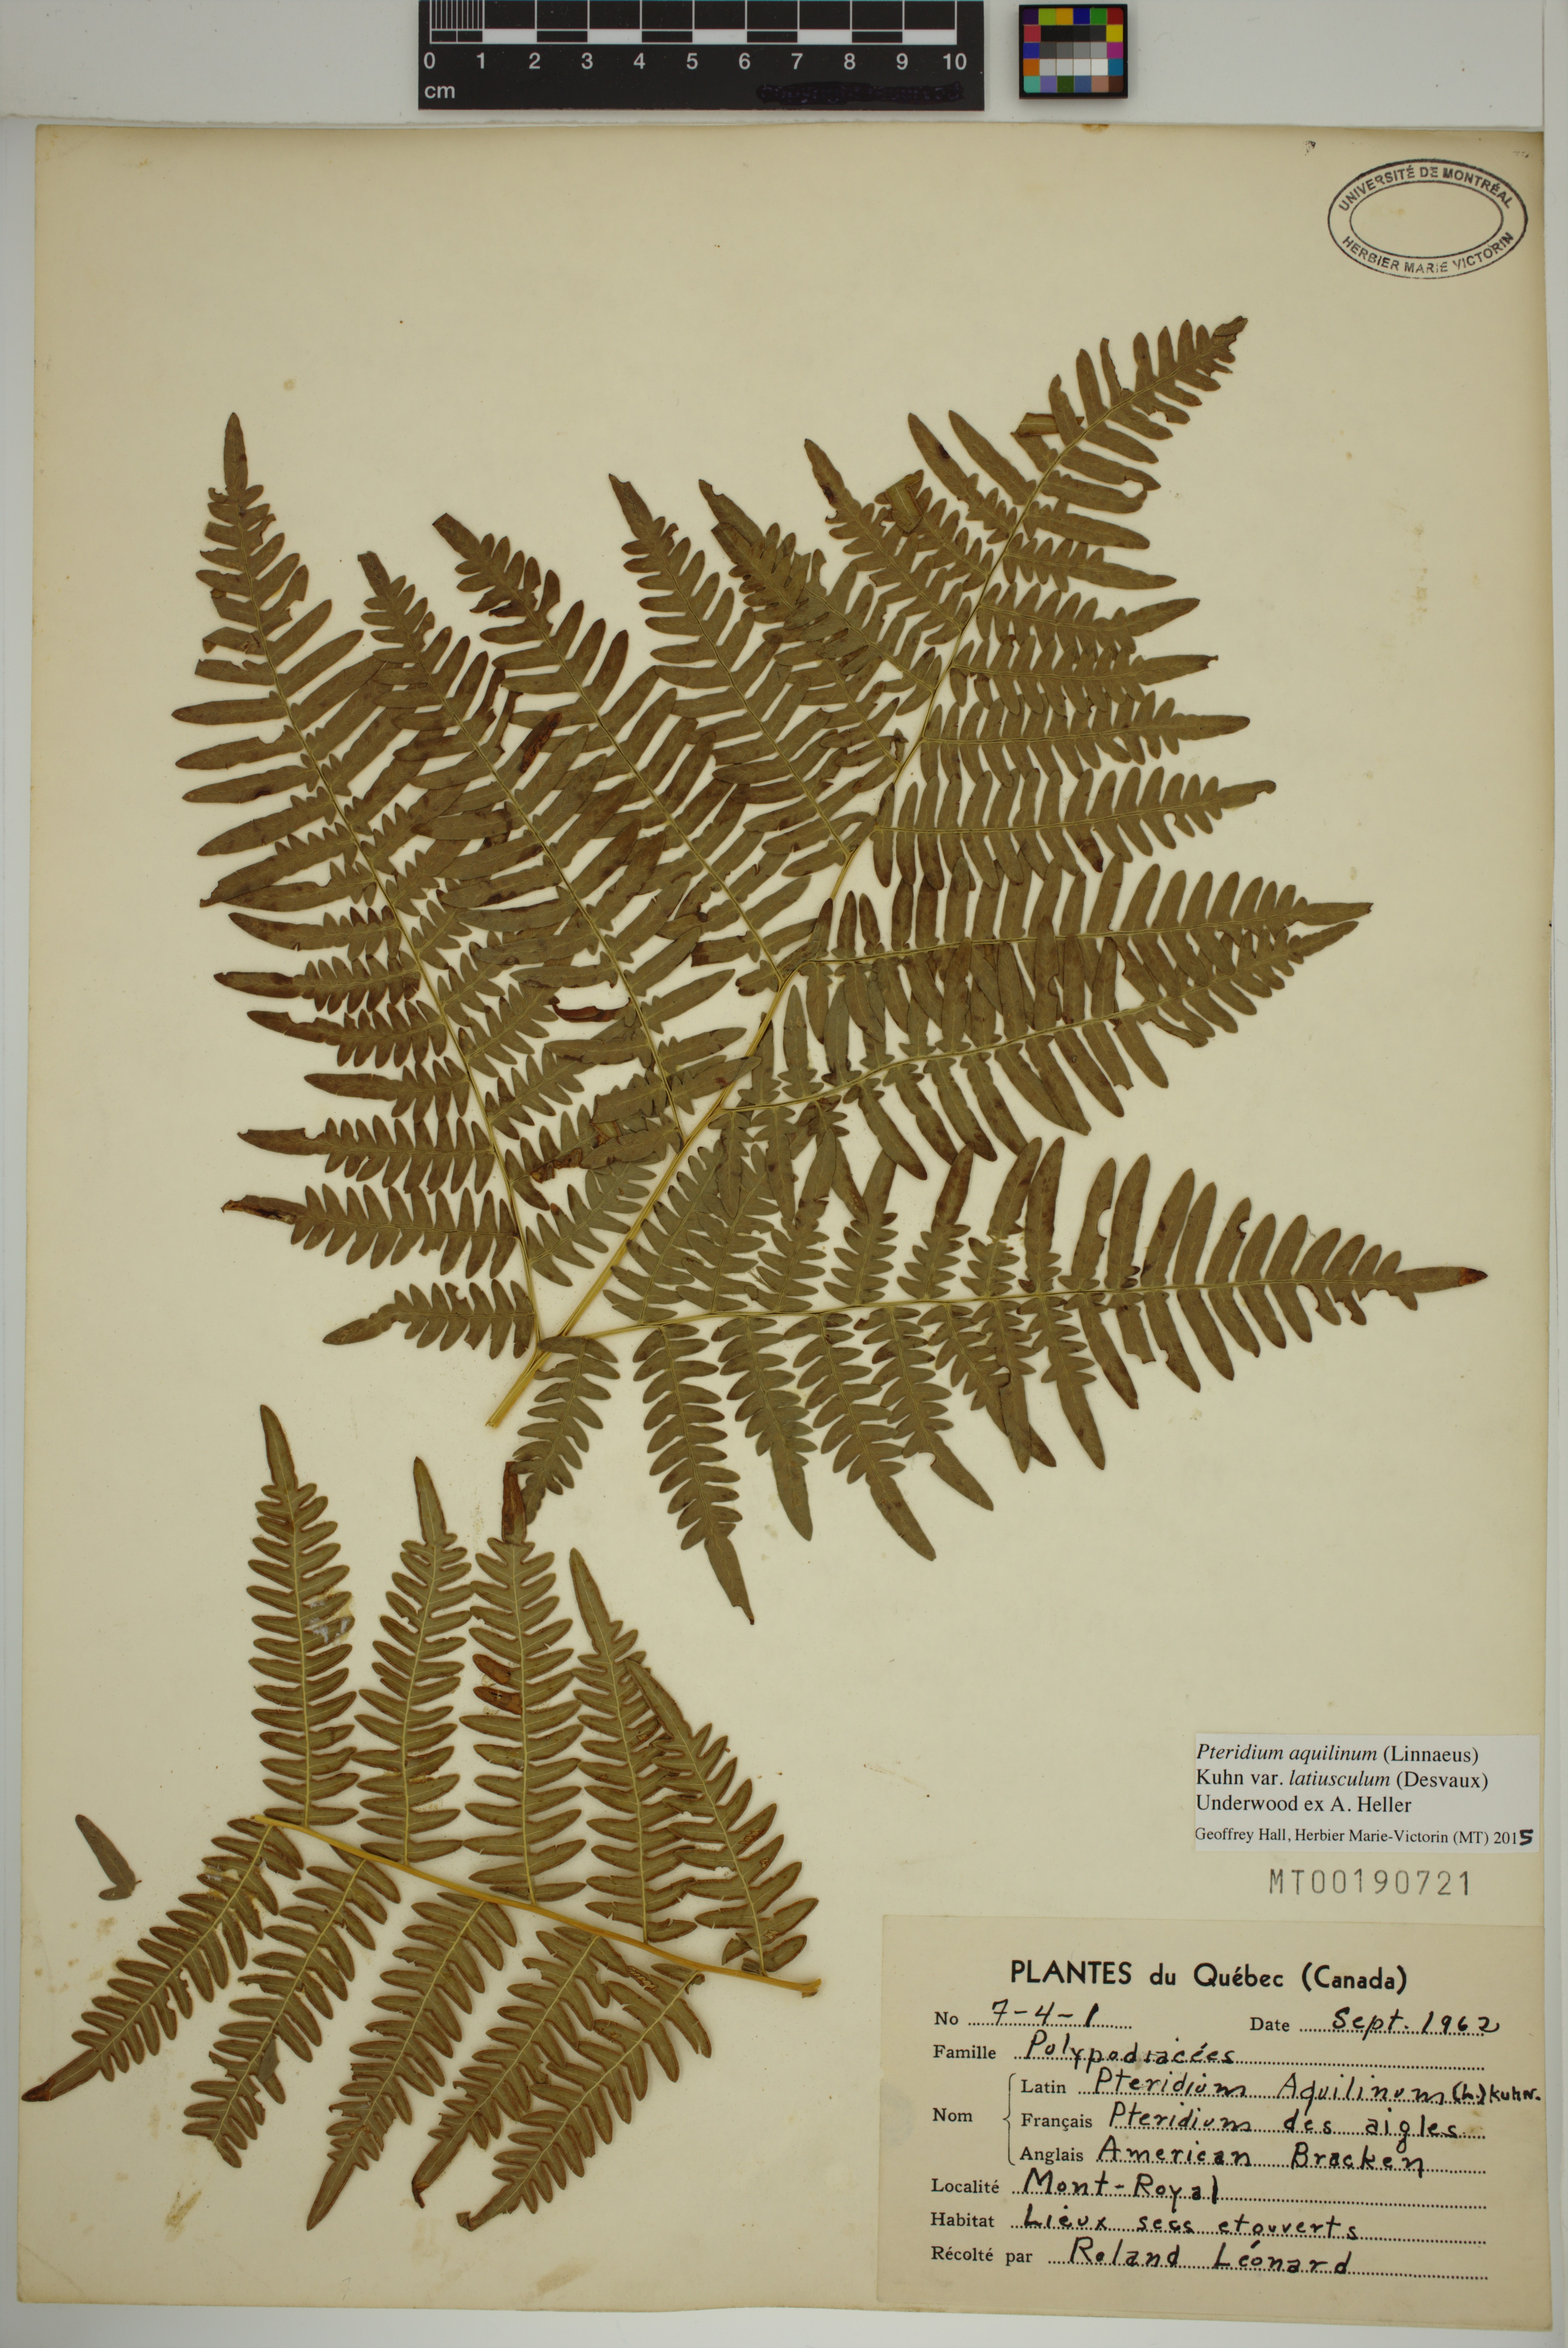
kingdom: Plantae
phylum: Tracheophyta
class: Polypodiopsida
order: Polypodiales
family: Dennstaedtiaceae
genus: Pteridium
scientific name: Pteridium aquilinum
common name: Bracken
